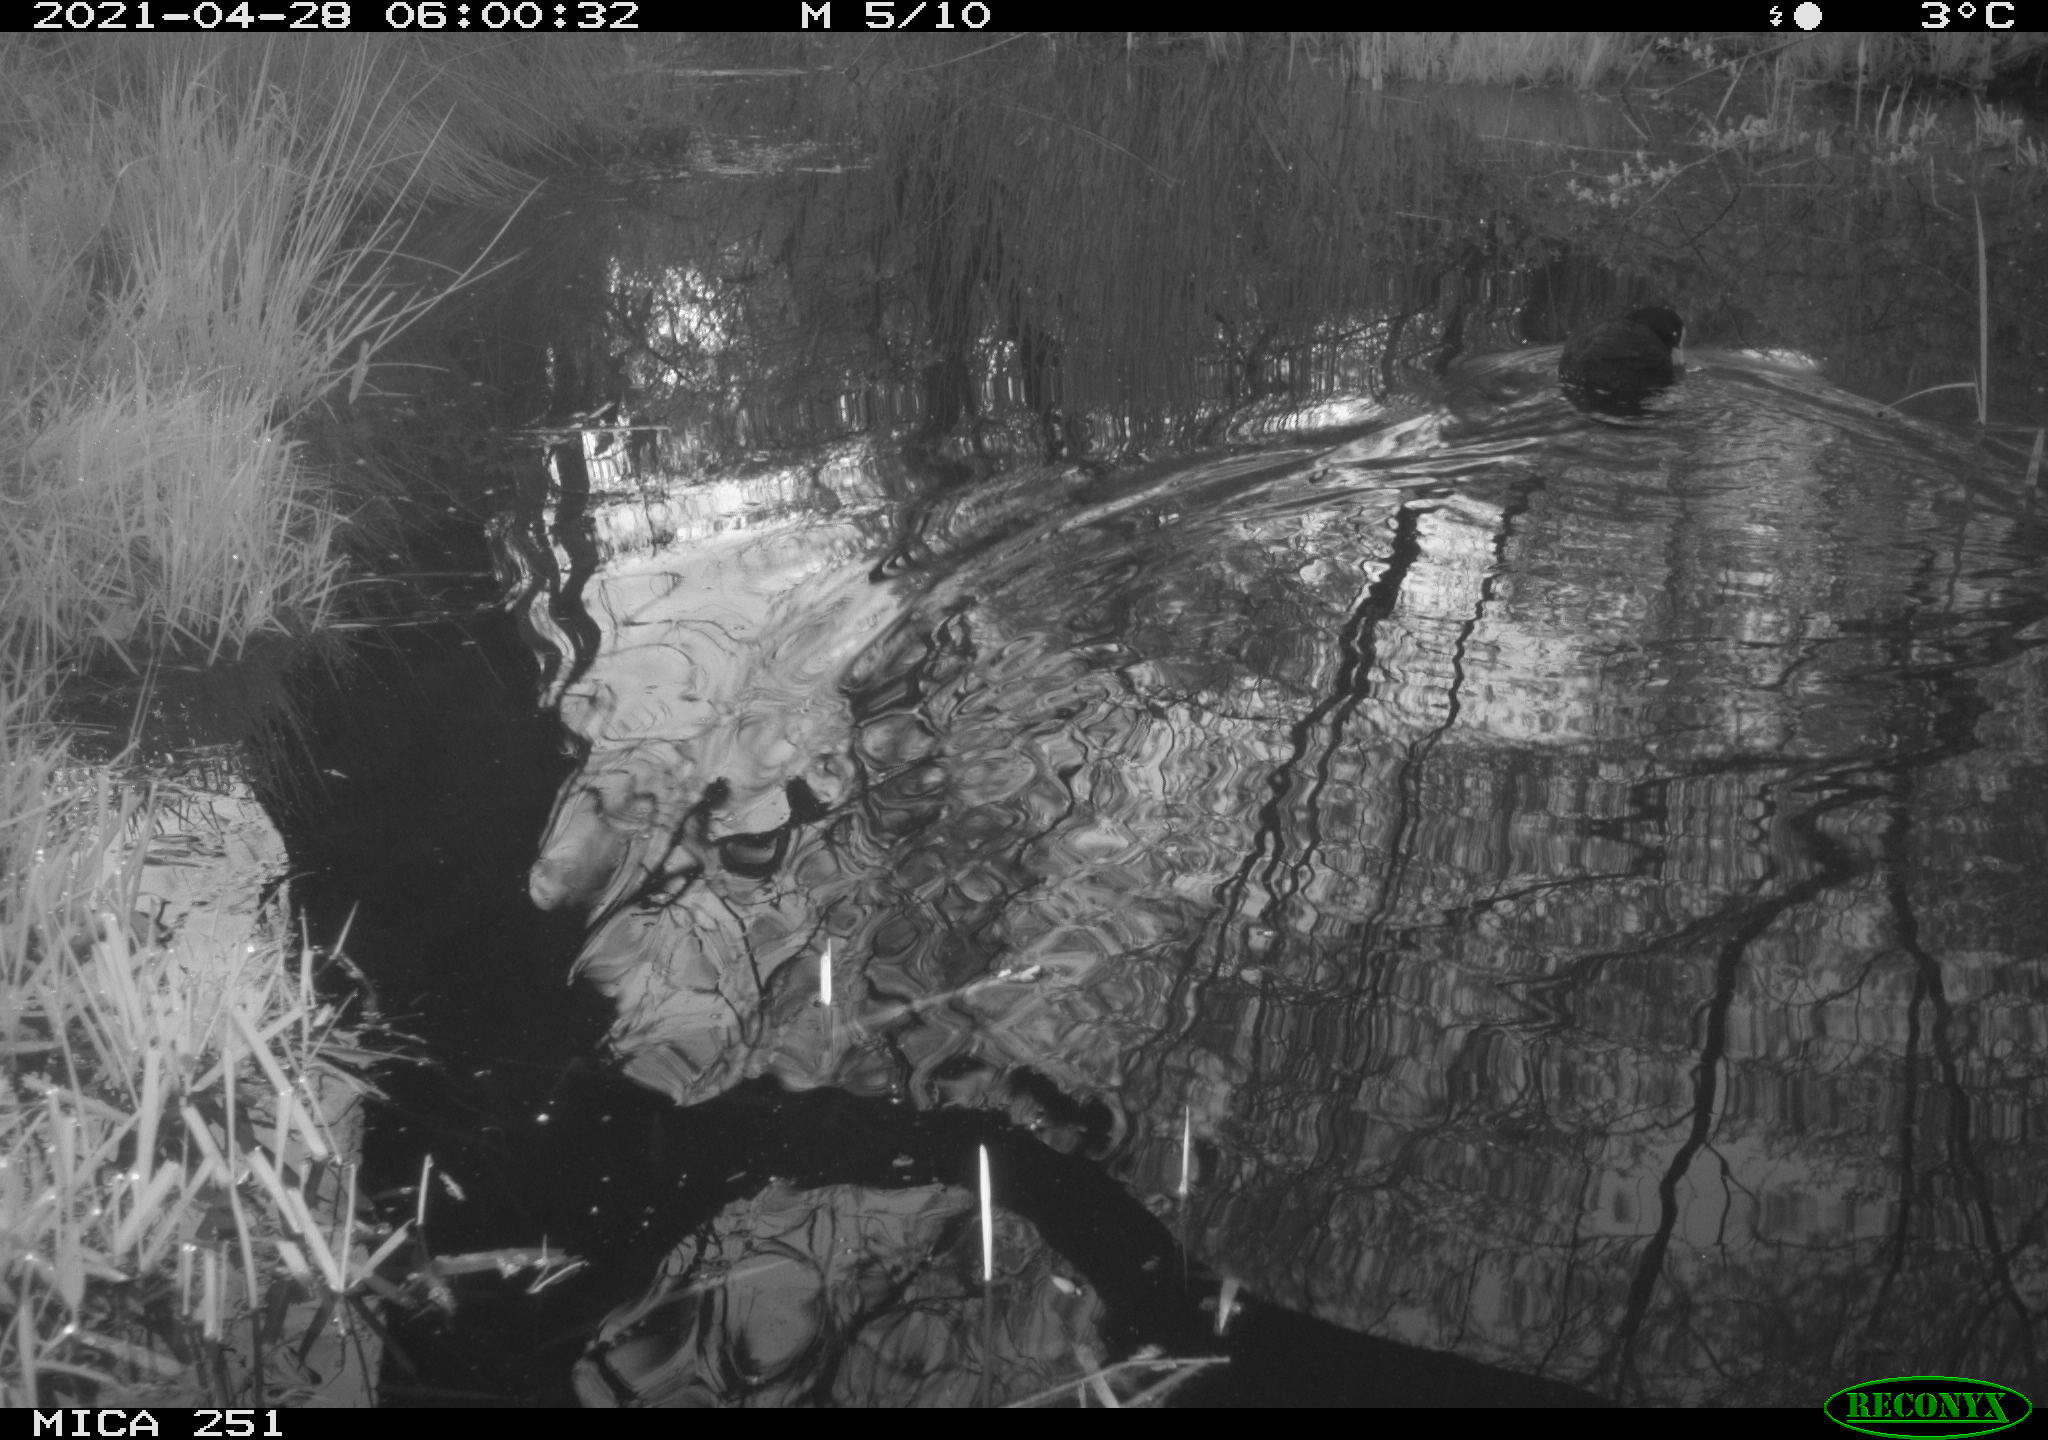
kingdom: Animalia
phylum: Chordata
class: Aves
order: Gruiformes
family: Rallidae
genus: Fulica
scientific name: Fulica atra
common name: Eurasian coot
